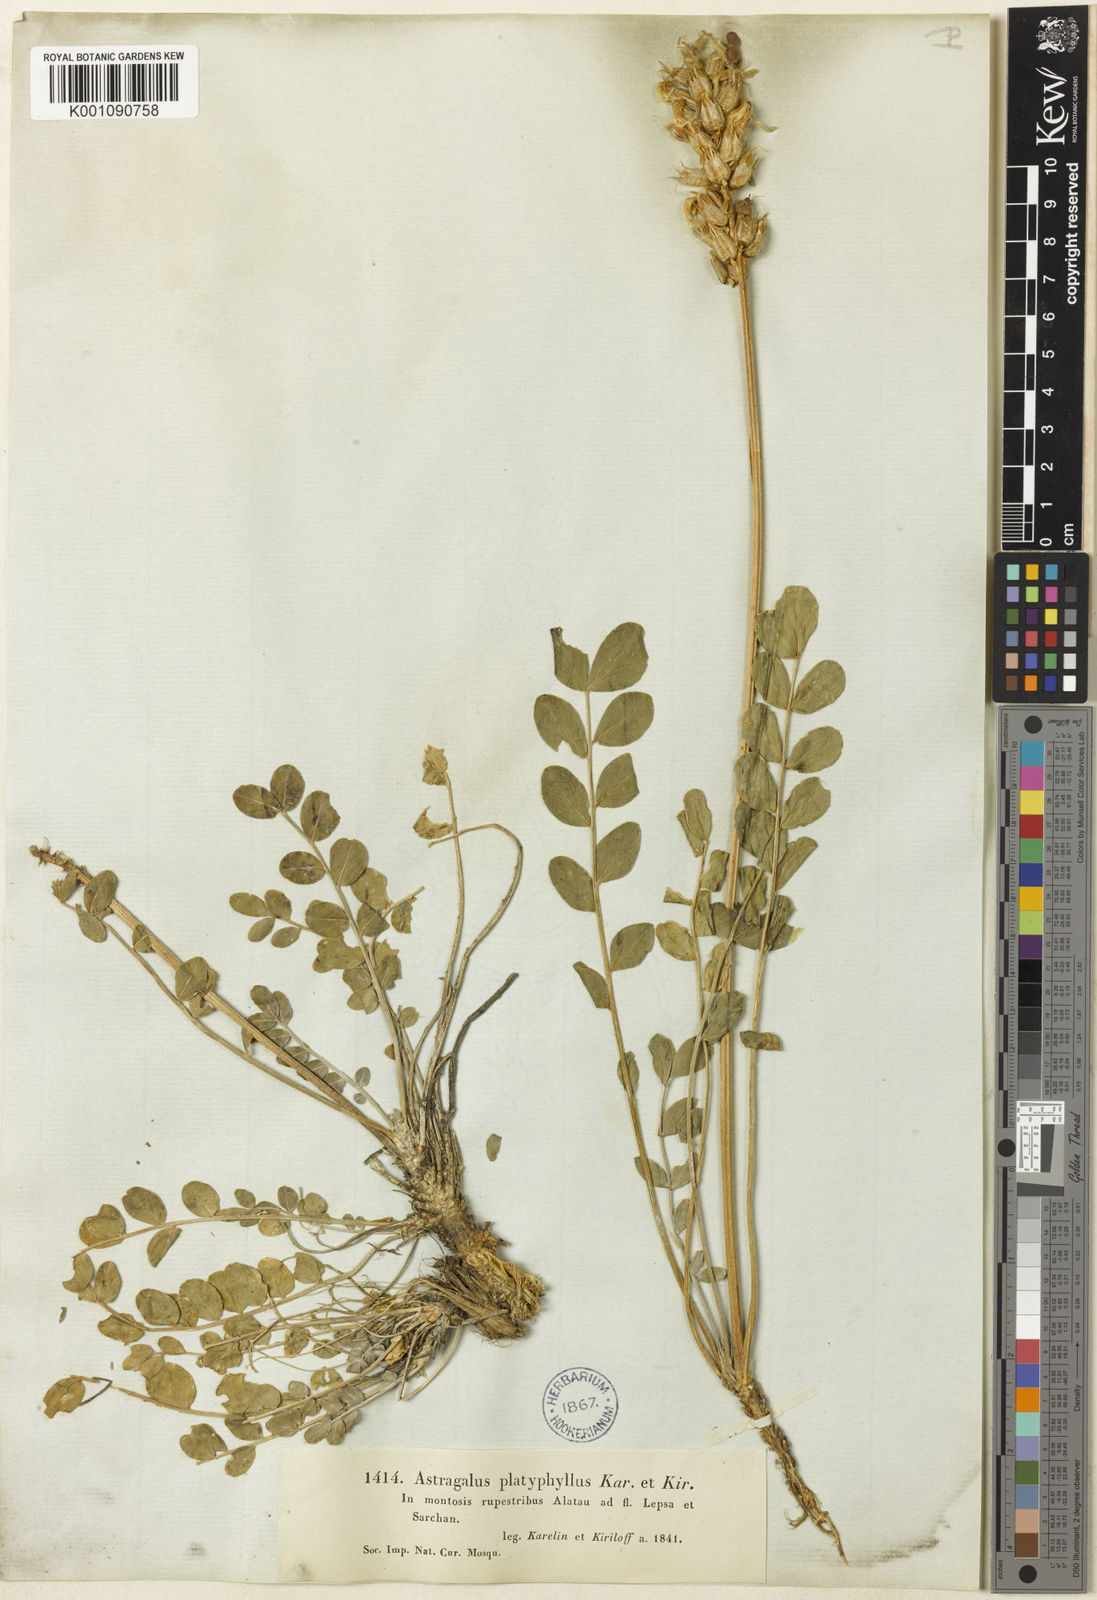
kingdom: Plantae
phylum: Tracheophyta
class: Magnoliopsida
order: Fabales
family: Fabaceae
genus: Astragalus
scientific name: Astragalus
